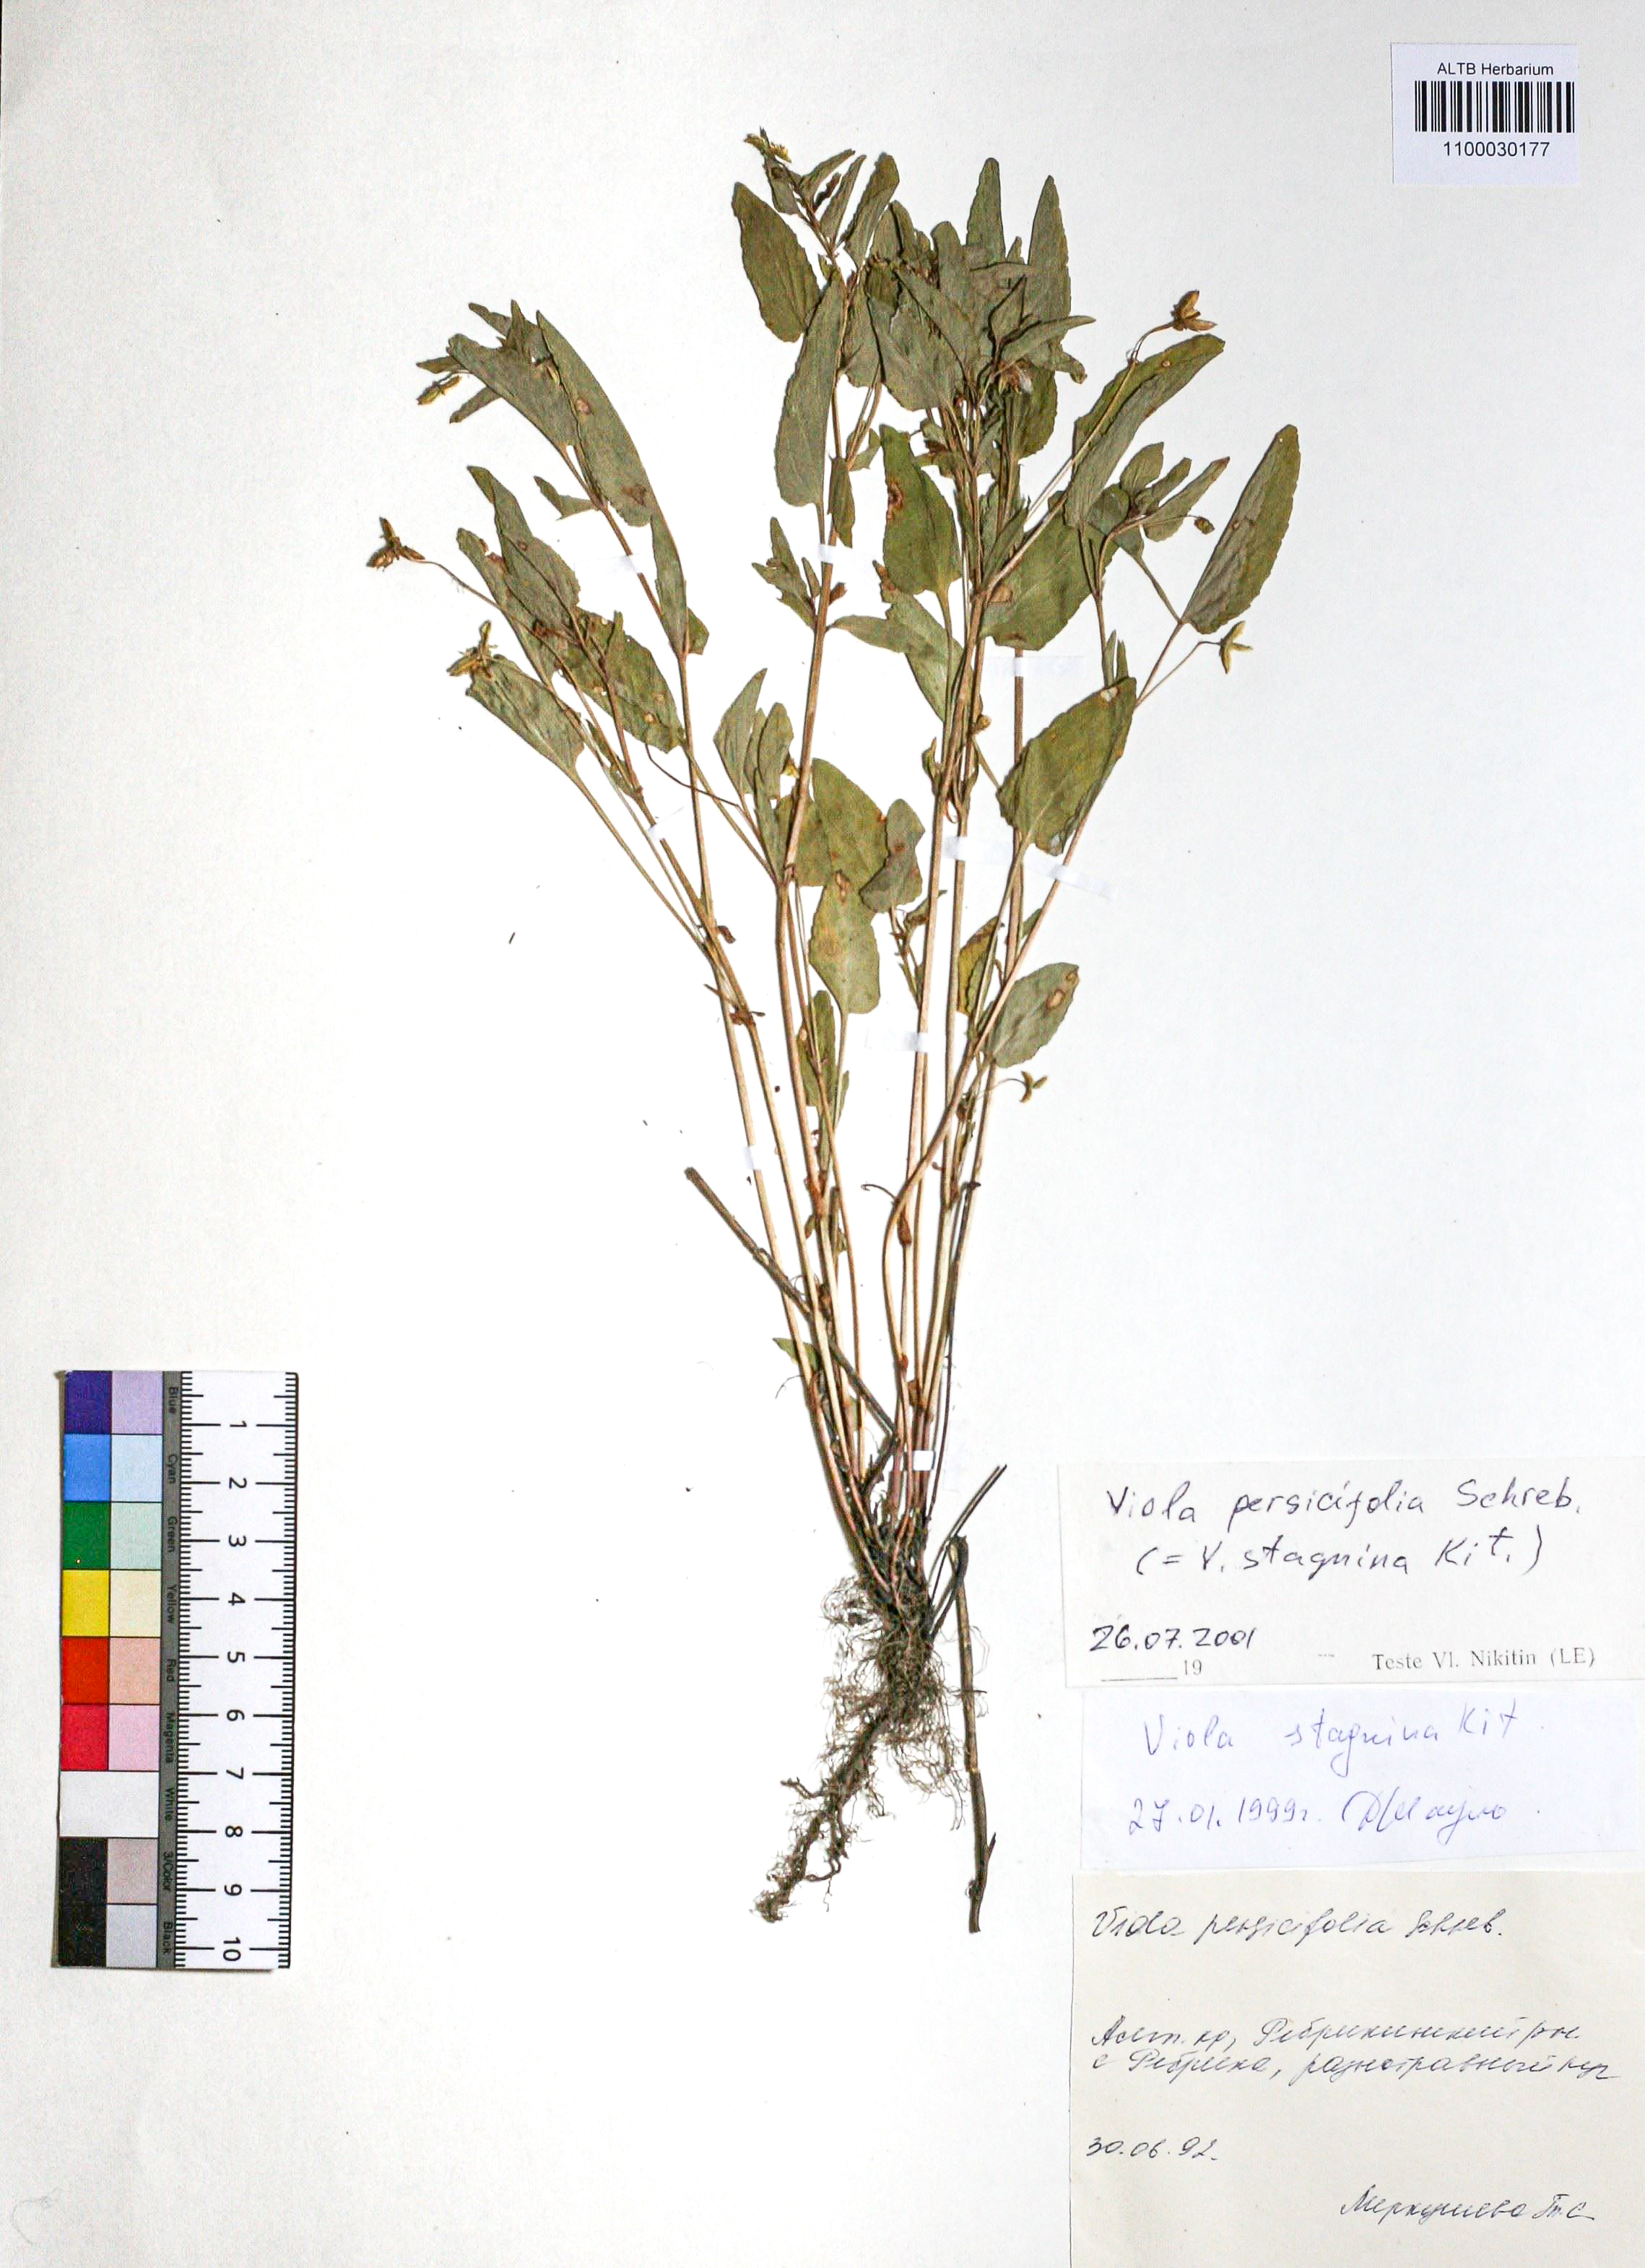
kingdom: Plantae
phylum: Tracheophyta
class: Magnoliopsida
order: Malpighiales
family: Violaceae
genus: Viola
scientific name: Viola stagnina
